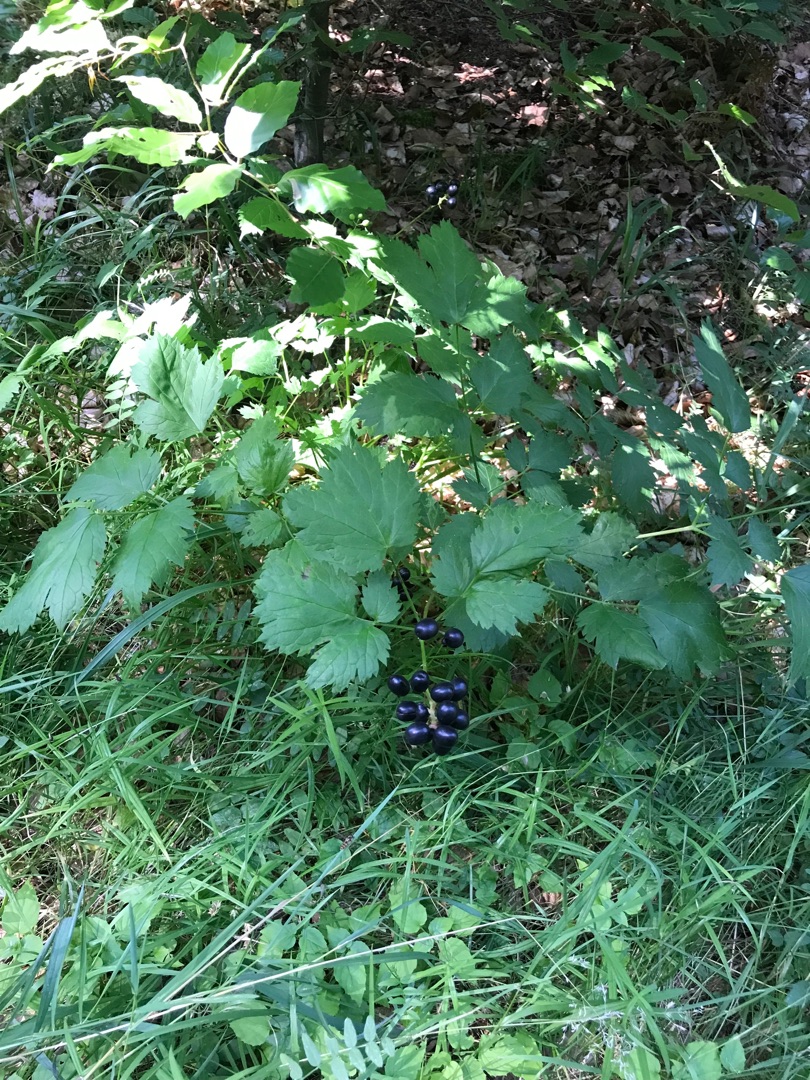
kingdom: Plantae
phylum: Tracheophyta
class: Magnoliopsida
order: Ranunculales
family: Ranunculaceae
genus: Actaea
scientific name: Actaea spicata
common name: Druemunke
